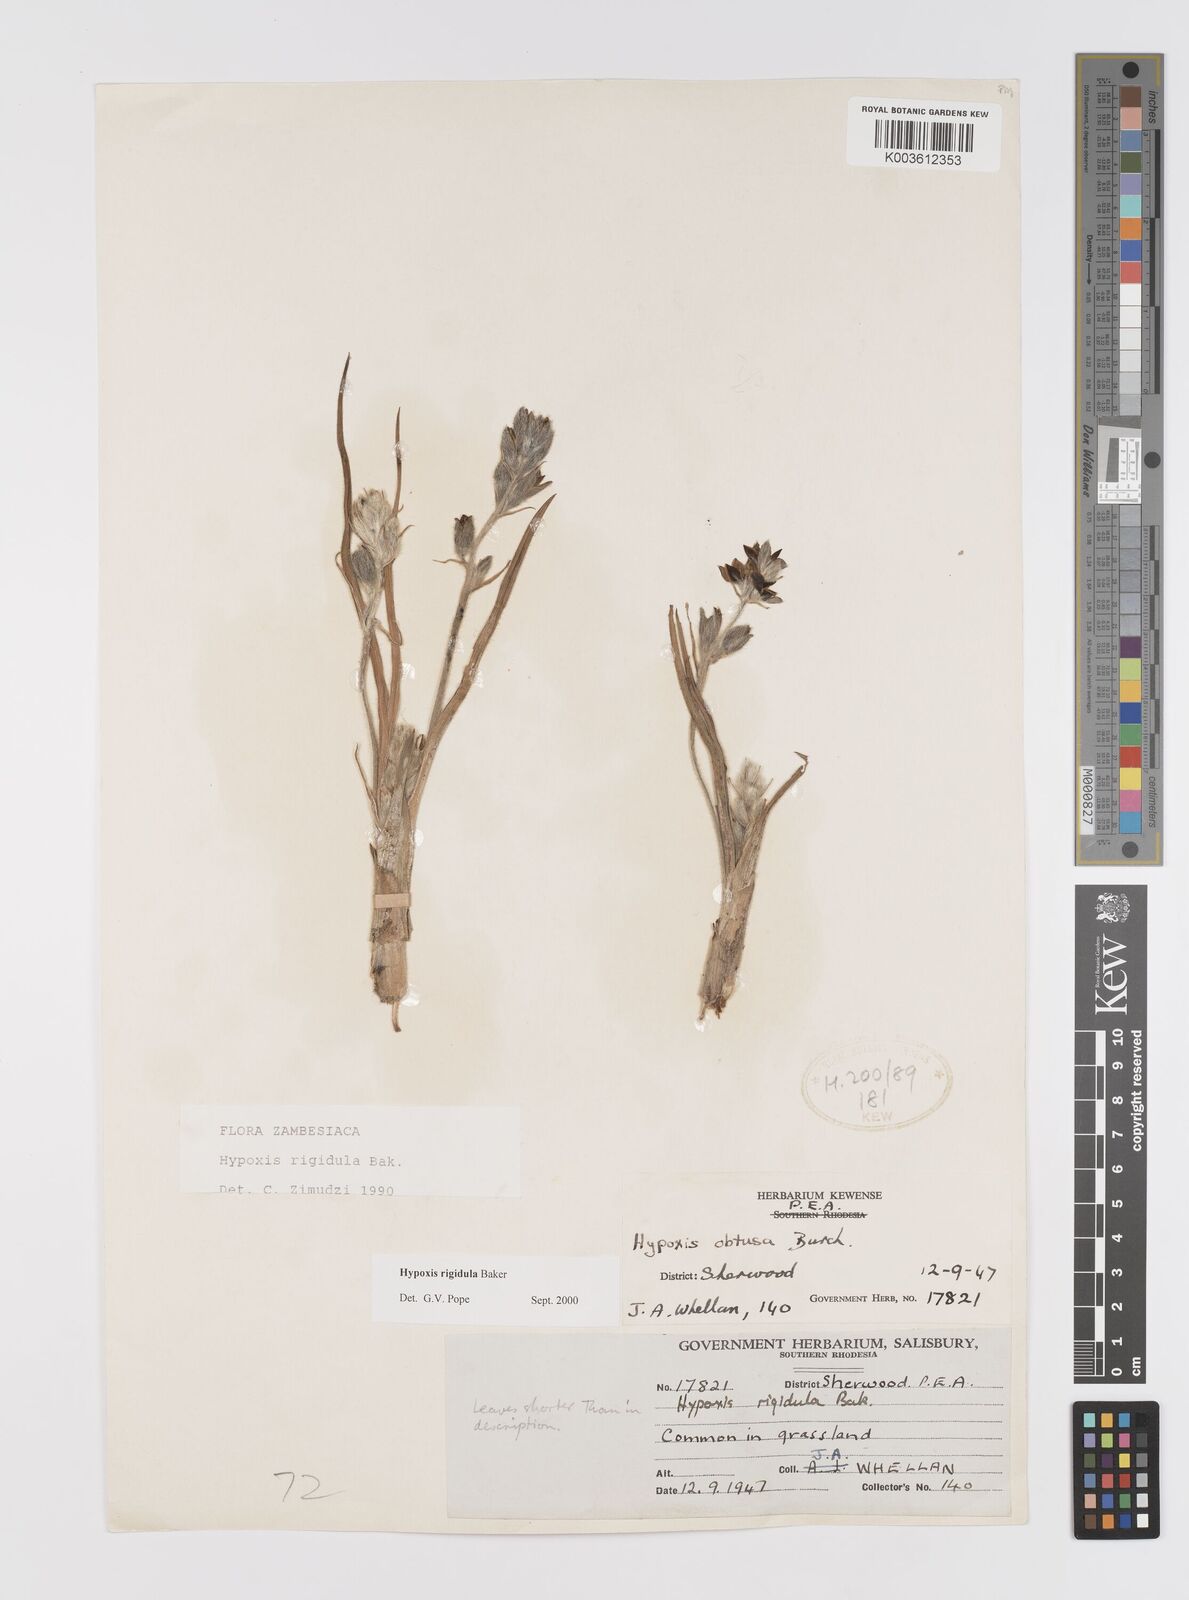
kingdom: Plantae
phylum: Tracheophyta
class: Liliopsida
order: Asparagales
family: Hypoxidaceae
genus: Hypoxis
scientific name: Hypoxis rigidula
